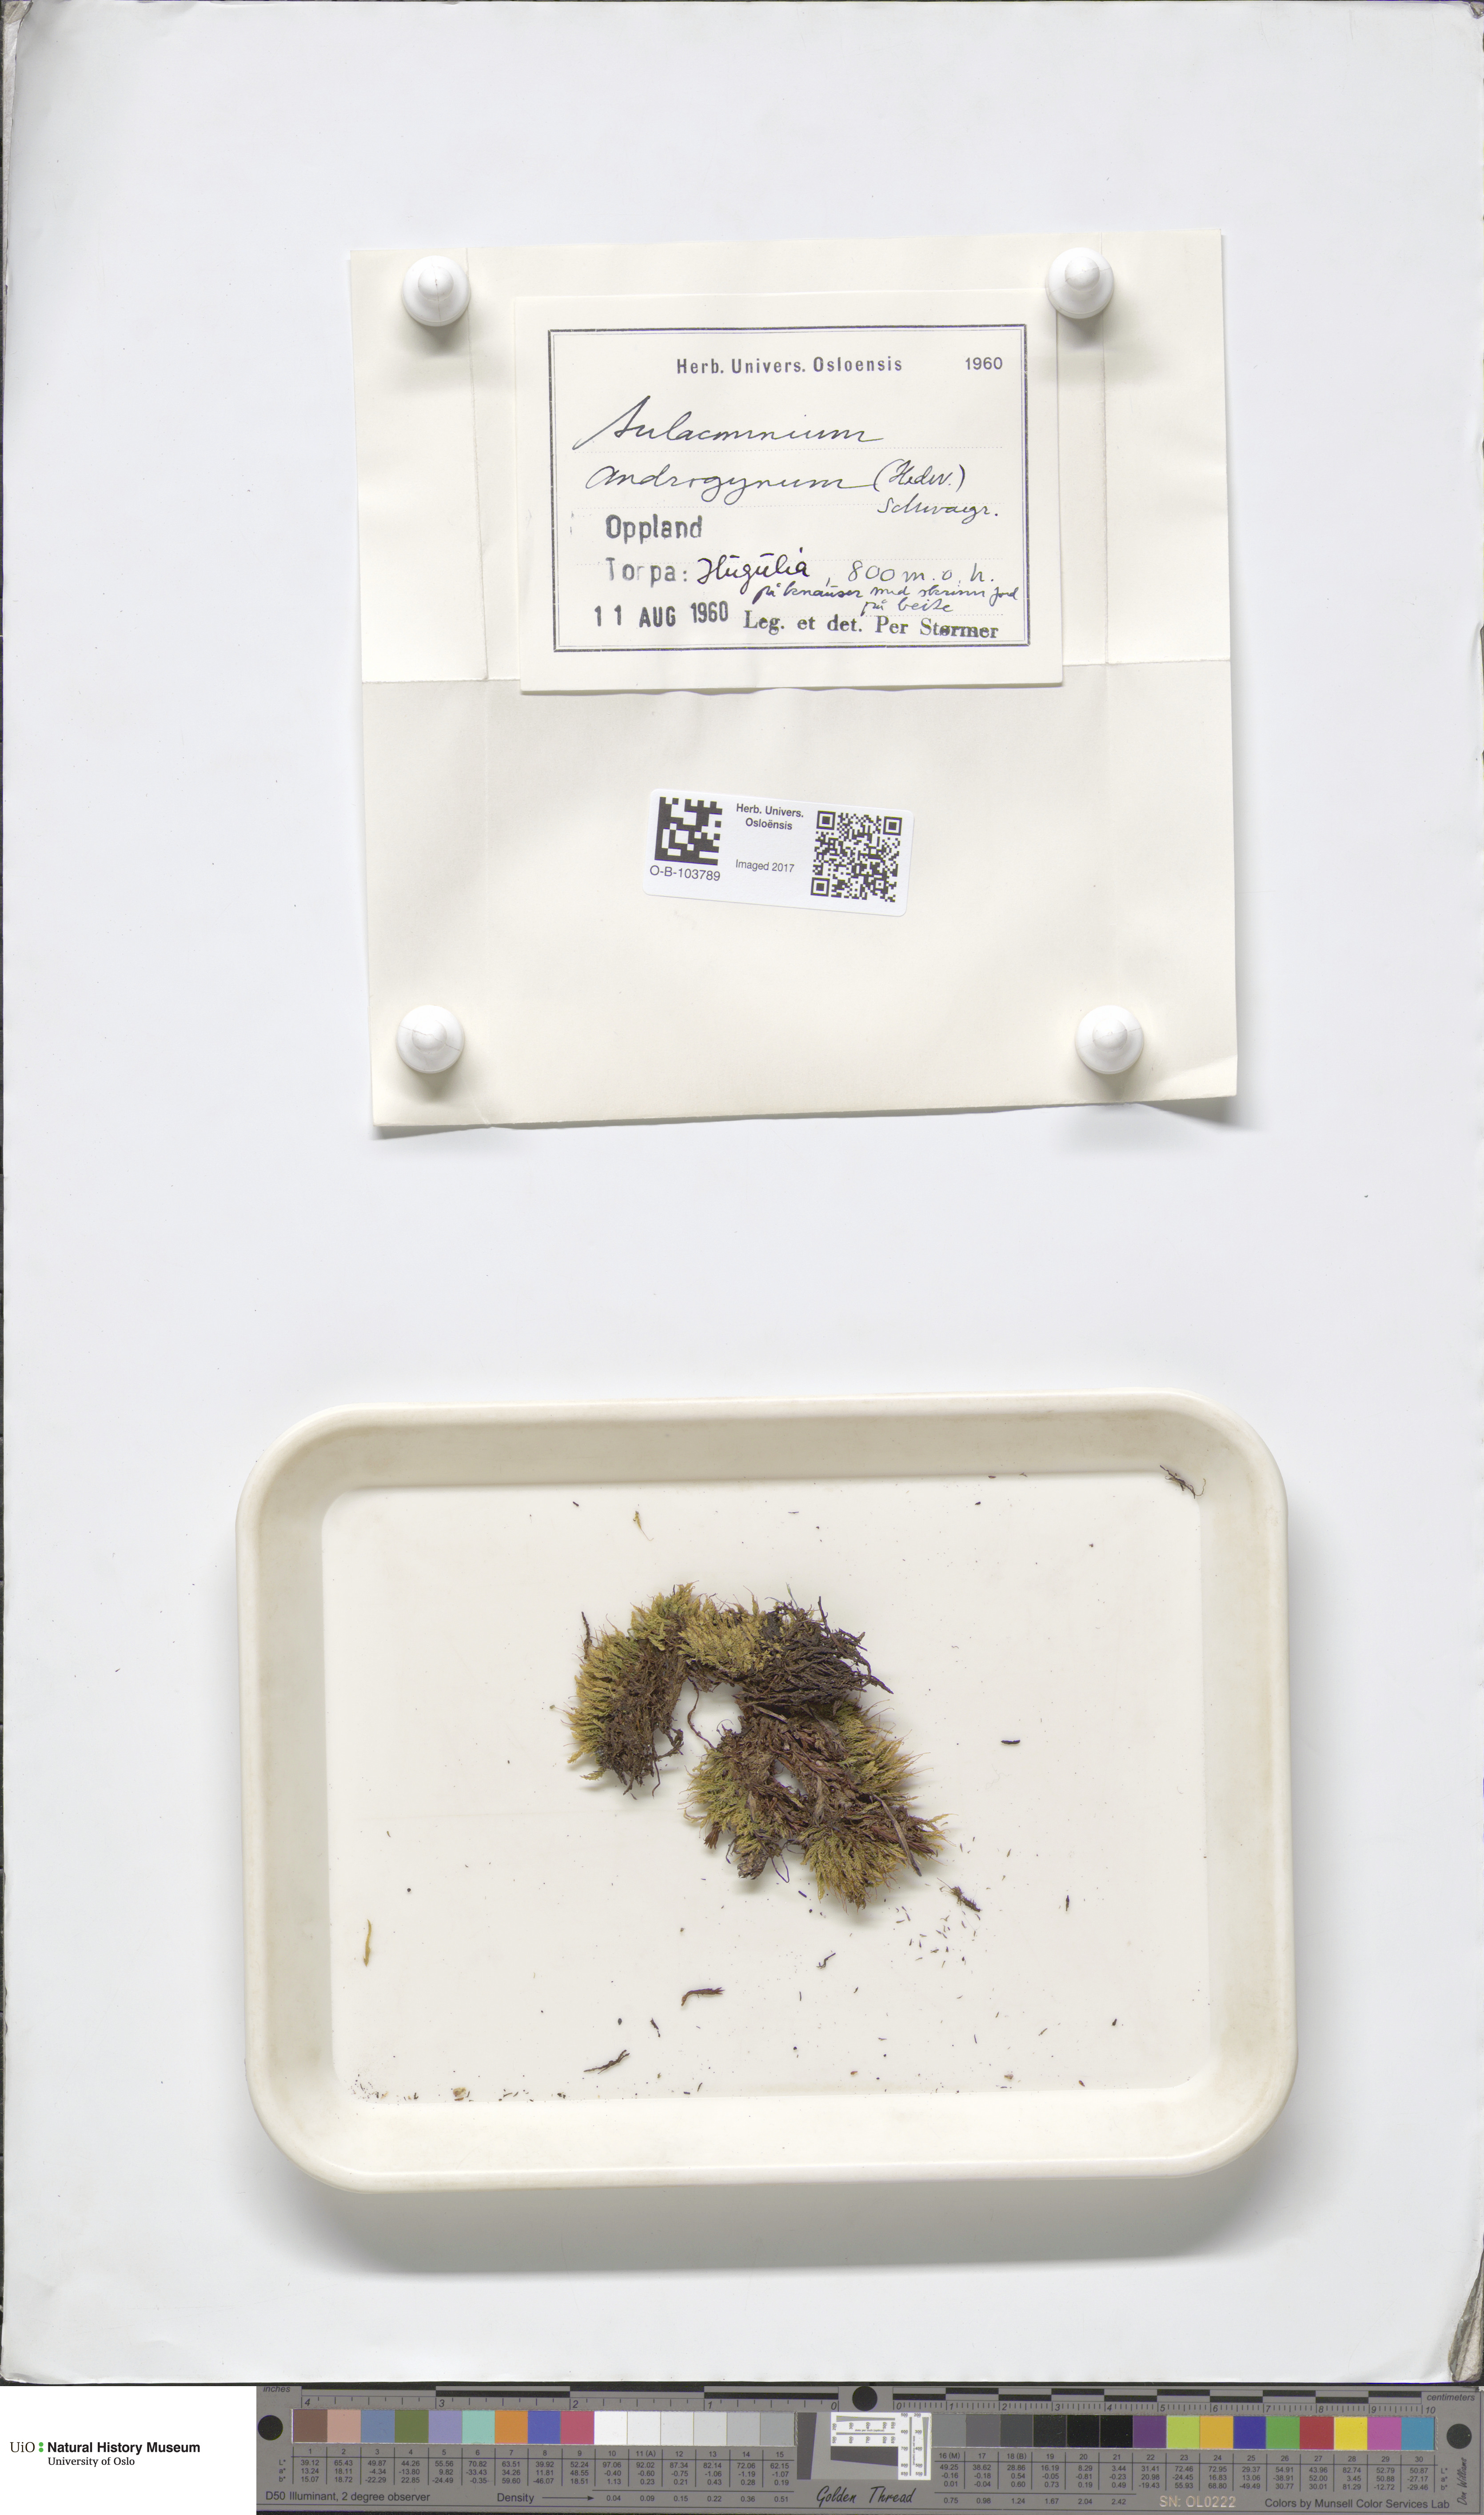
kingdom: Plantae
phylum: Bryophyta
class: Bryopsida
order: Aulacomniales
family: Aulacomniaceae
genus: Aulacomnium
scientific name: Aulacomnium androgynum
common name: Little groove moss
